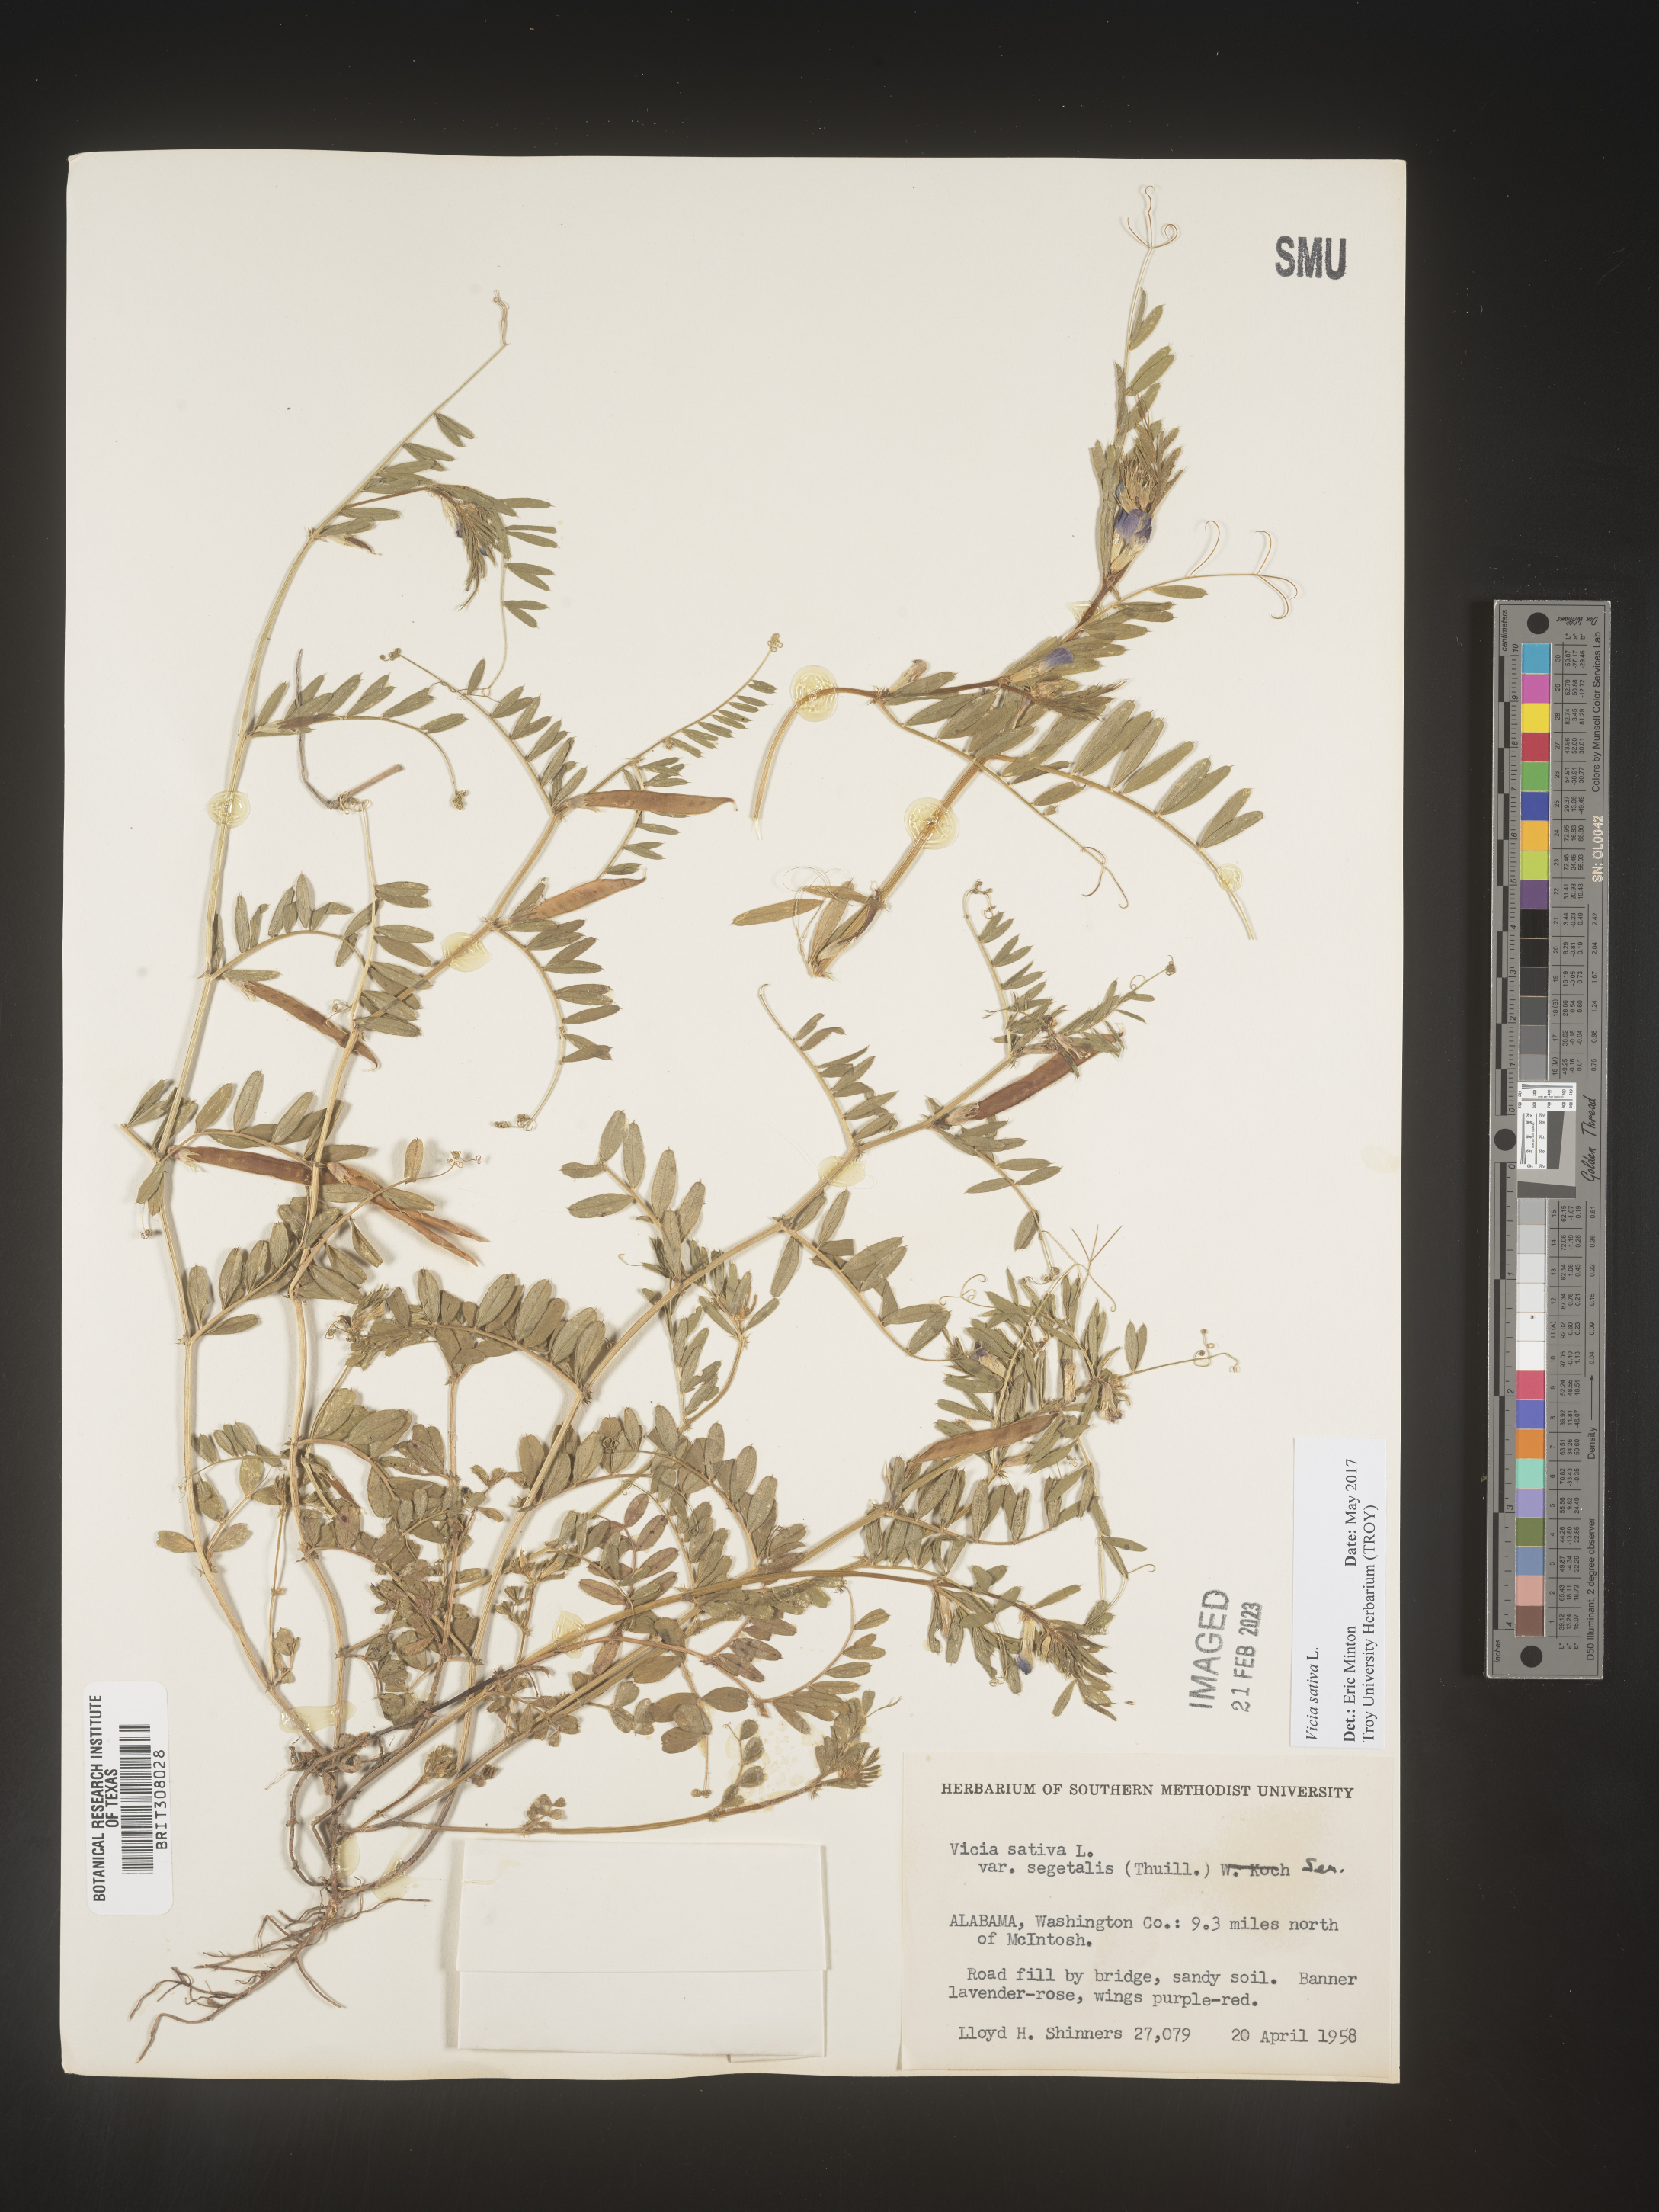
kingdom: Plantae
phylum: Tracheophyta
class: Magnoliopsida
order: Fabales
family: Fabaceae
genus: Vicia
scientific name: Vicia sativa
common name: Garden vetch
